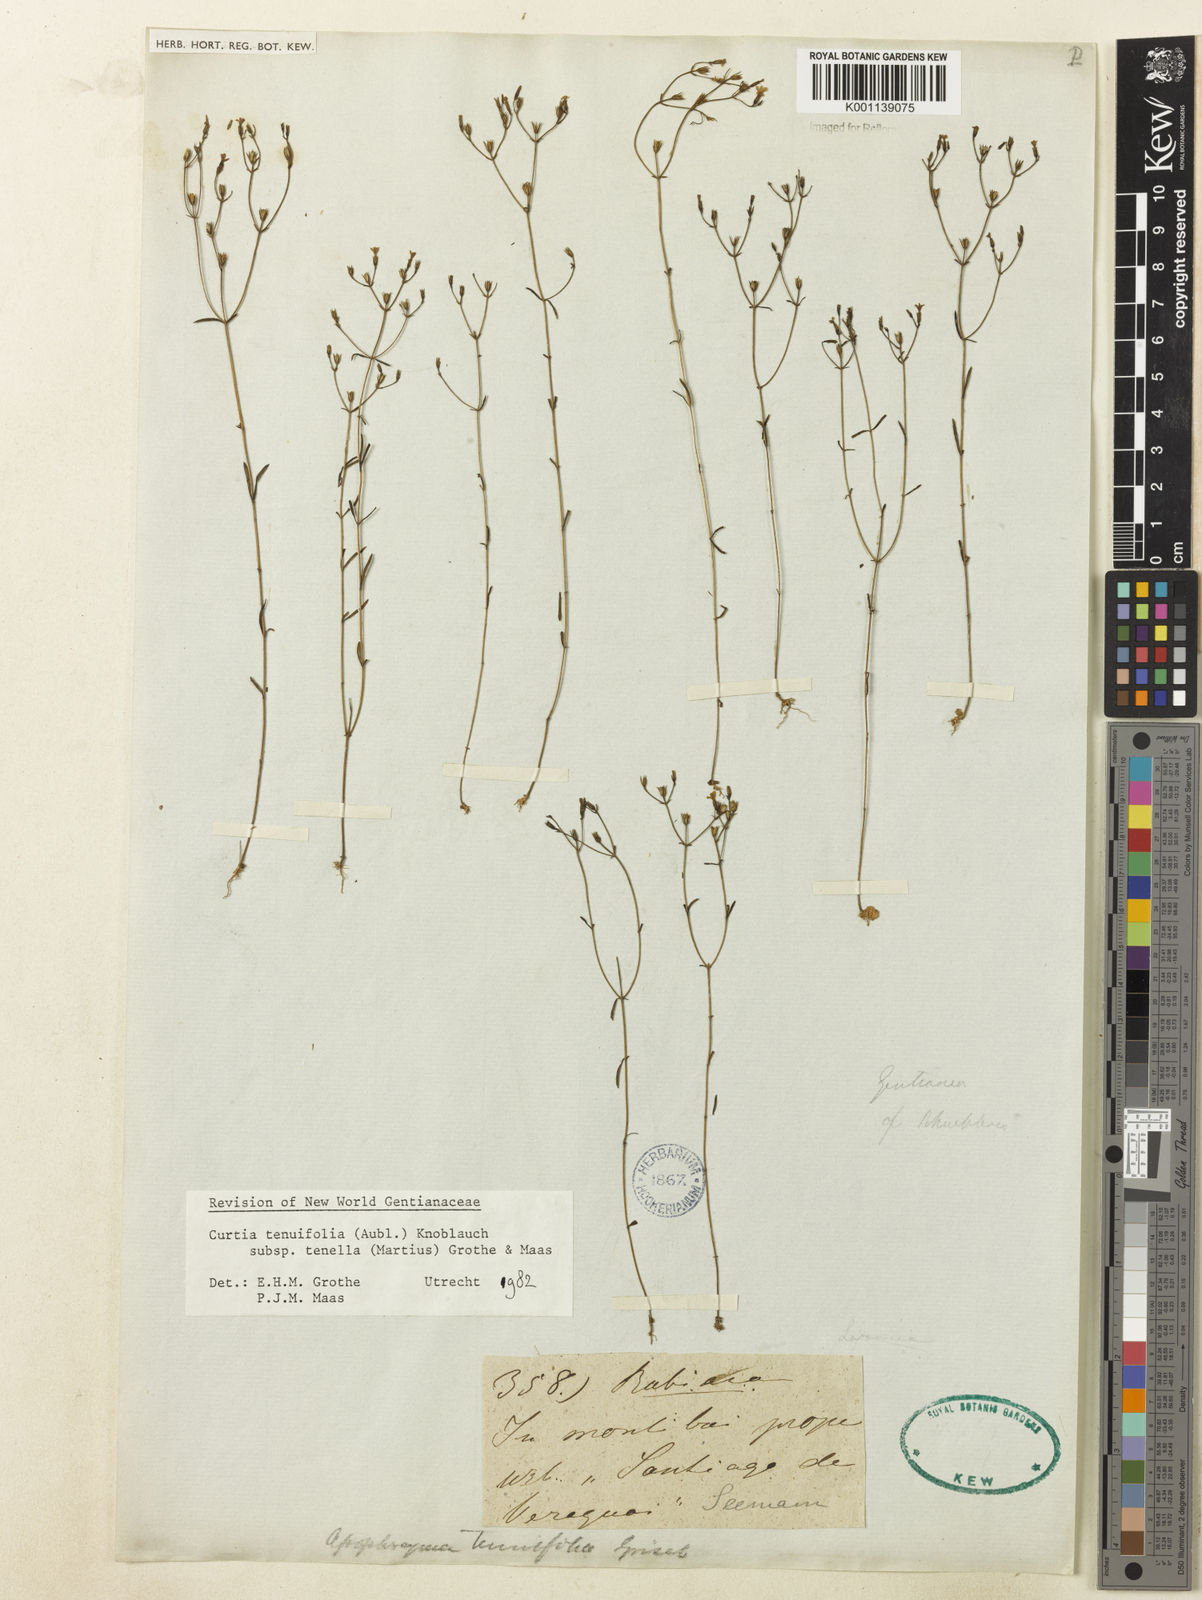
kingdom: Plantae
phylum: Tracheophyta
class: Magnoliopsida
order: Gentianales
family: Gentianaceae
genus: Curtia
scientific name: Curtia tenella
